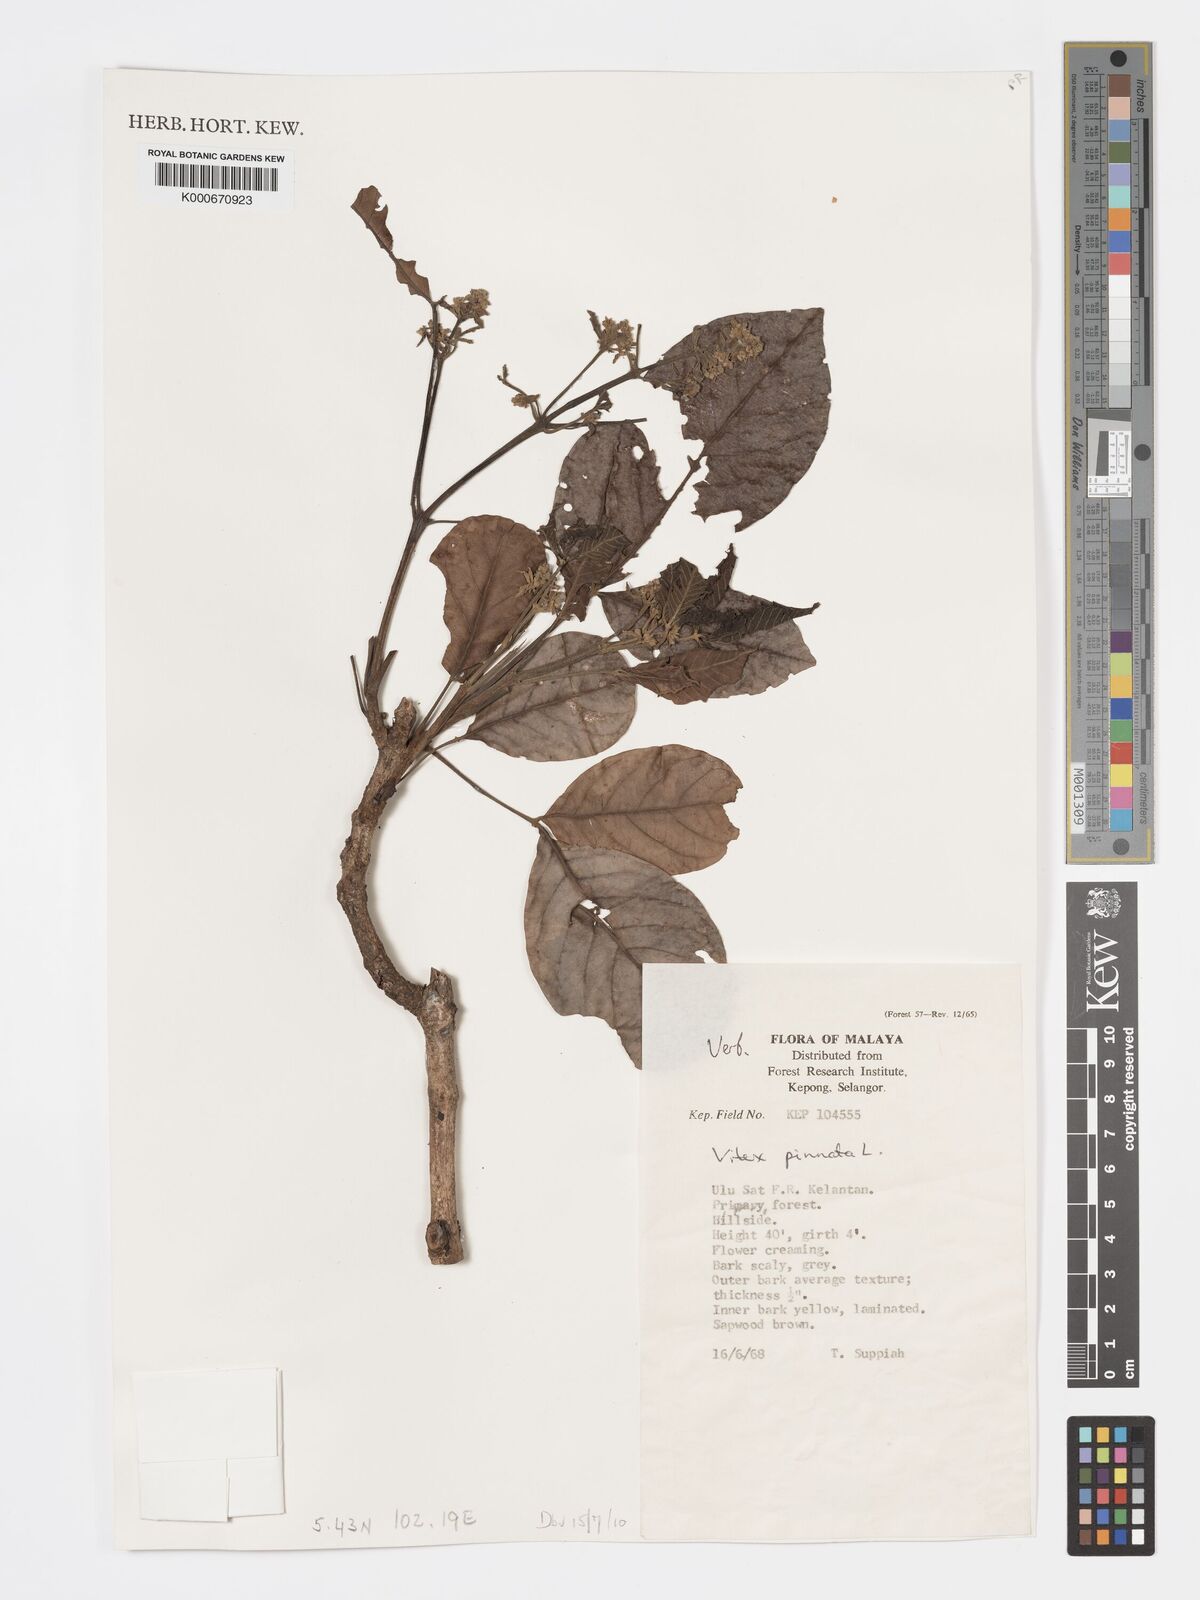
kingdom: Plantae
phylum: Tracheophyta
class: Magnoliopsida
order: Lamiales
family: Lamiaceae
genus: Vitex
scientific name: Vitex pinnata
